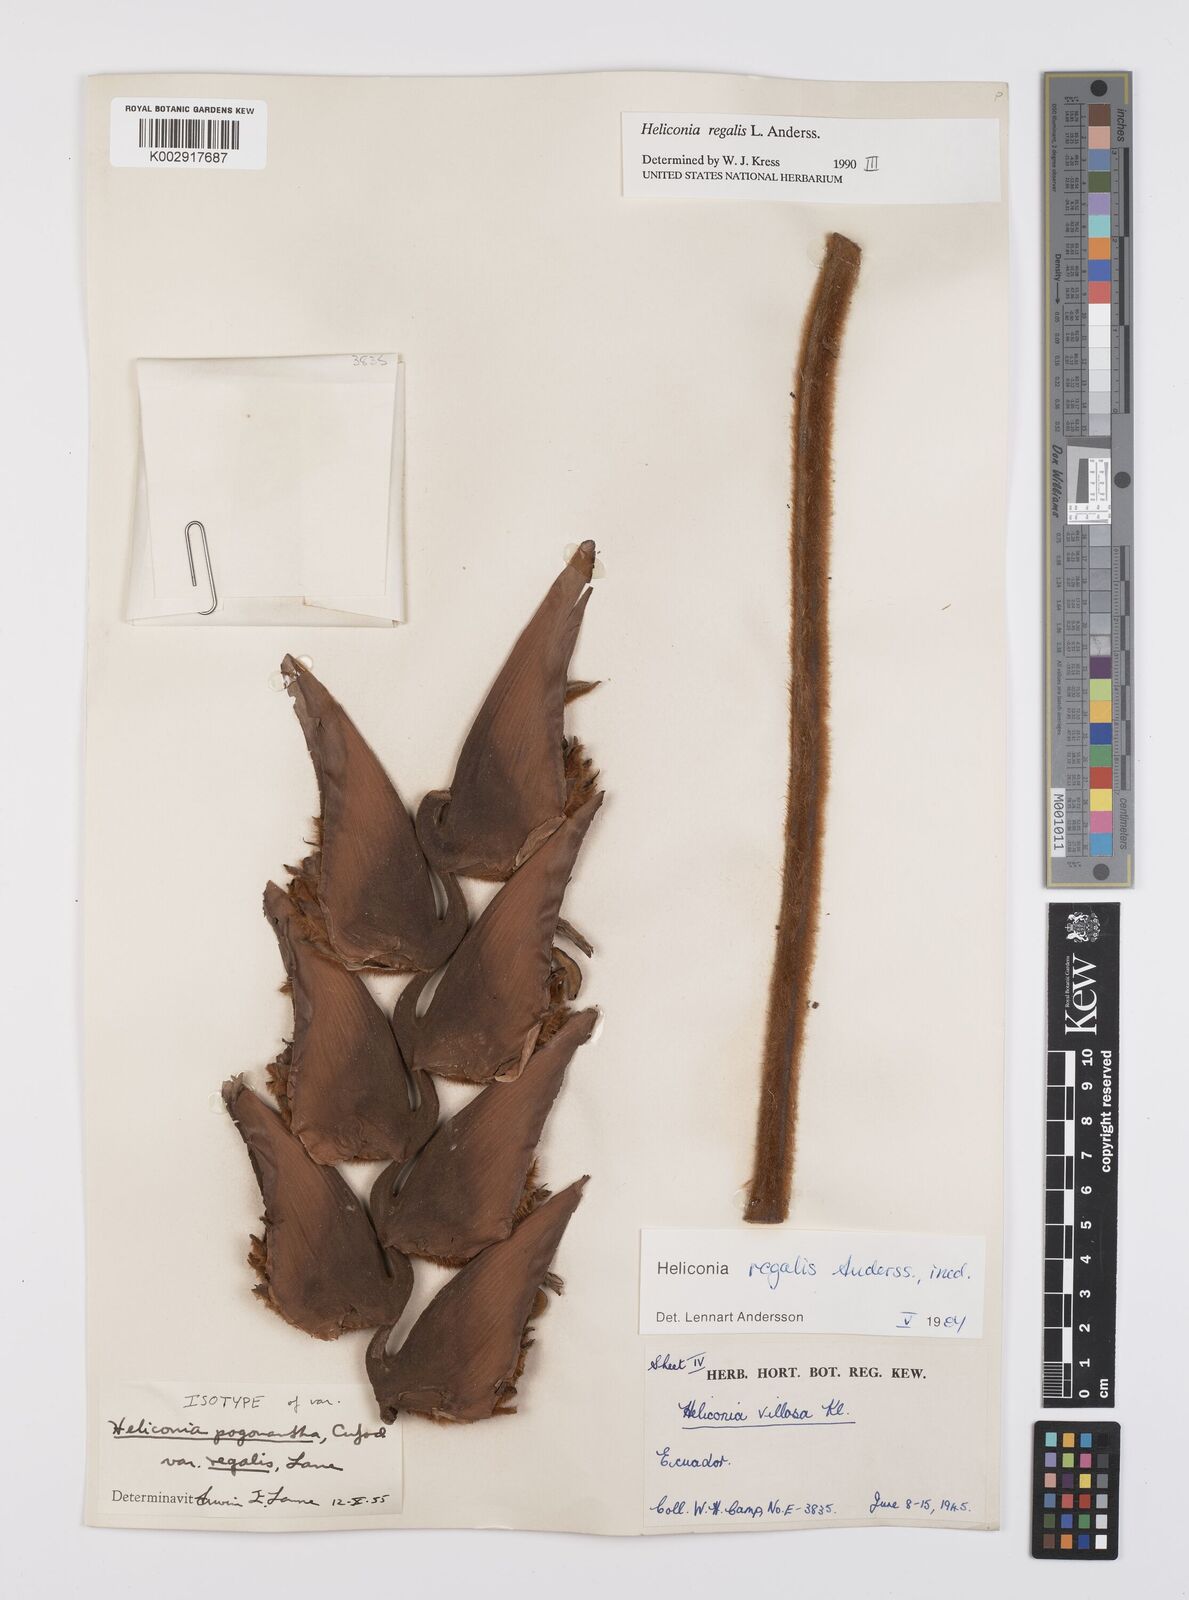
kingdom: Plantae
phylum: Tracheophyta
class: Liliopsida
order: Zingiberales
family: Heliconiaceae
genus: Heliconia
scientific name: Heliconia regalis
